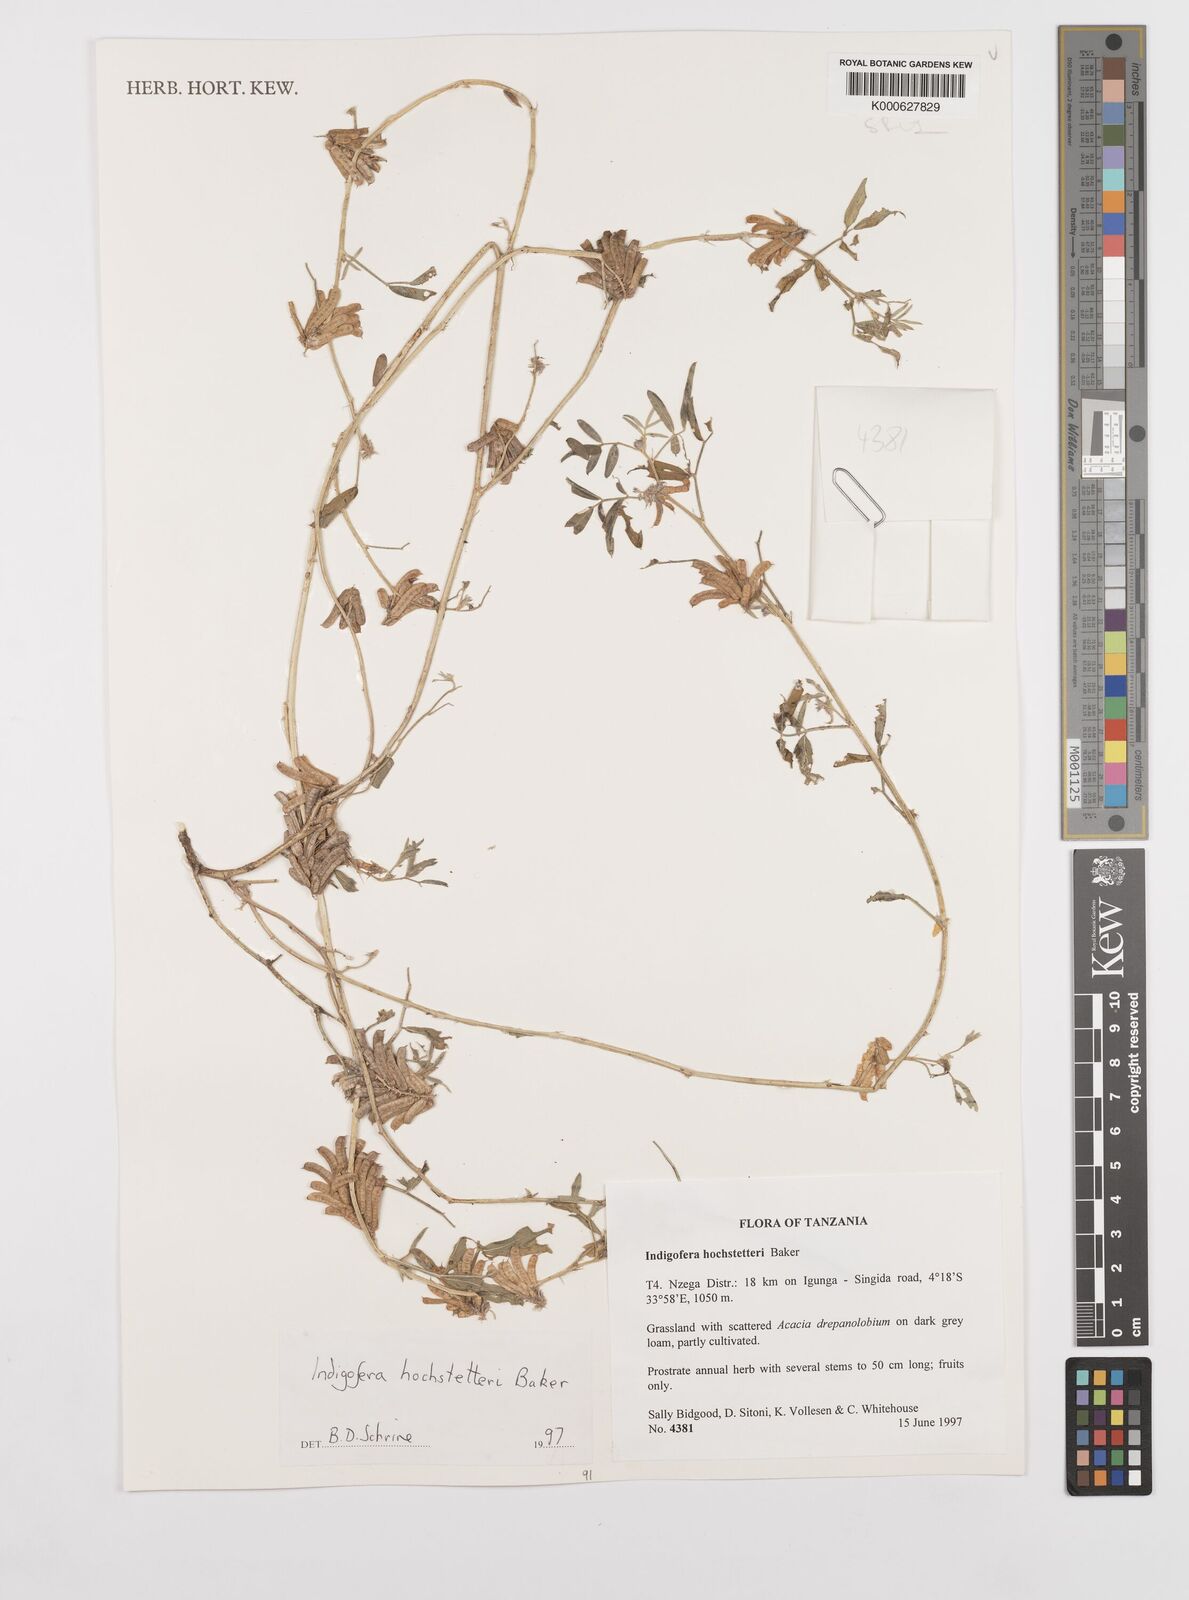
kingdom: Plantae
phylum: Tracheophyta
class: Magnoliopsida
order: Fabales
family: Fabaceae
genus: Indigofera
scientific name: Indigofera hochstetteri
